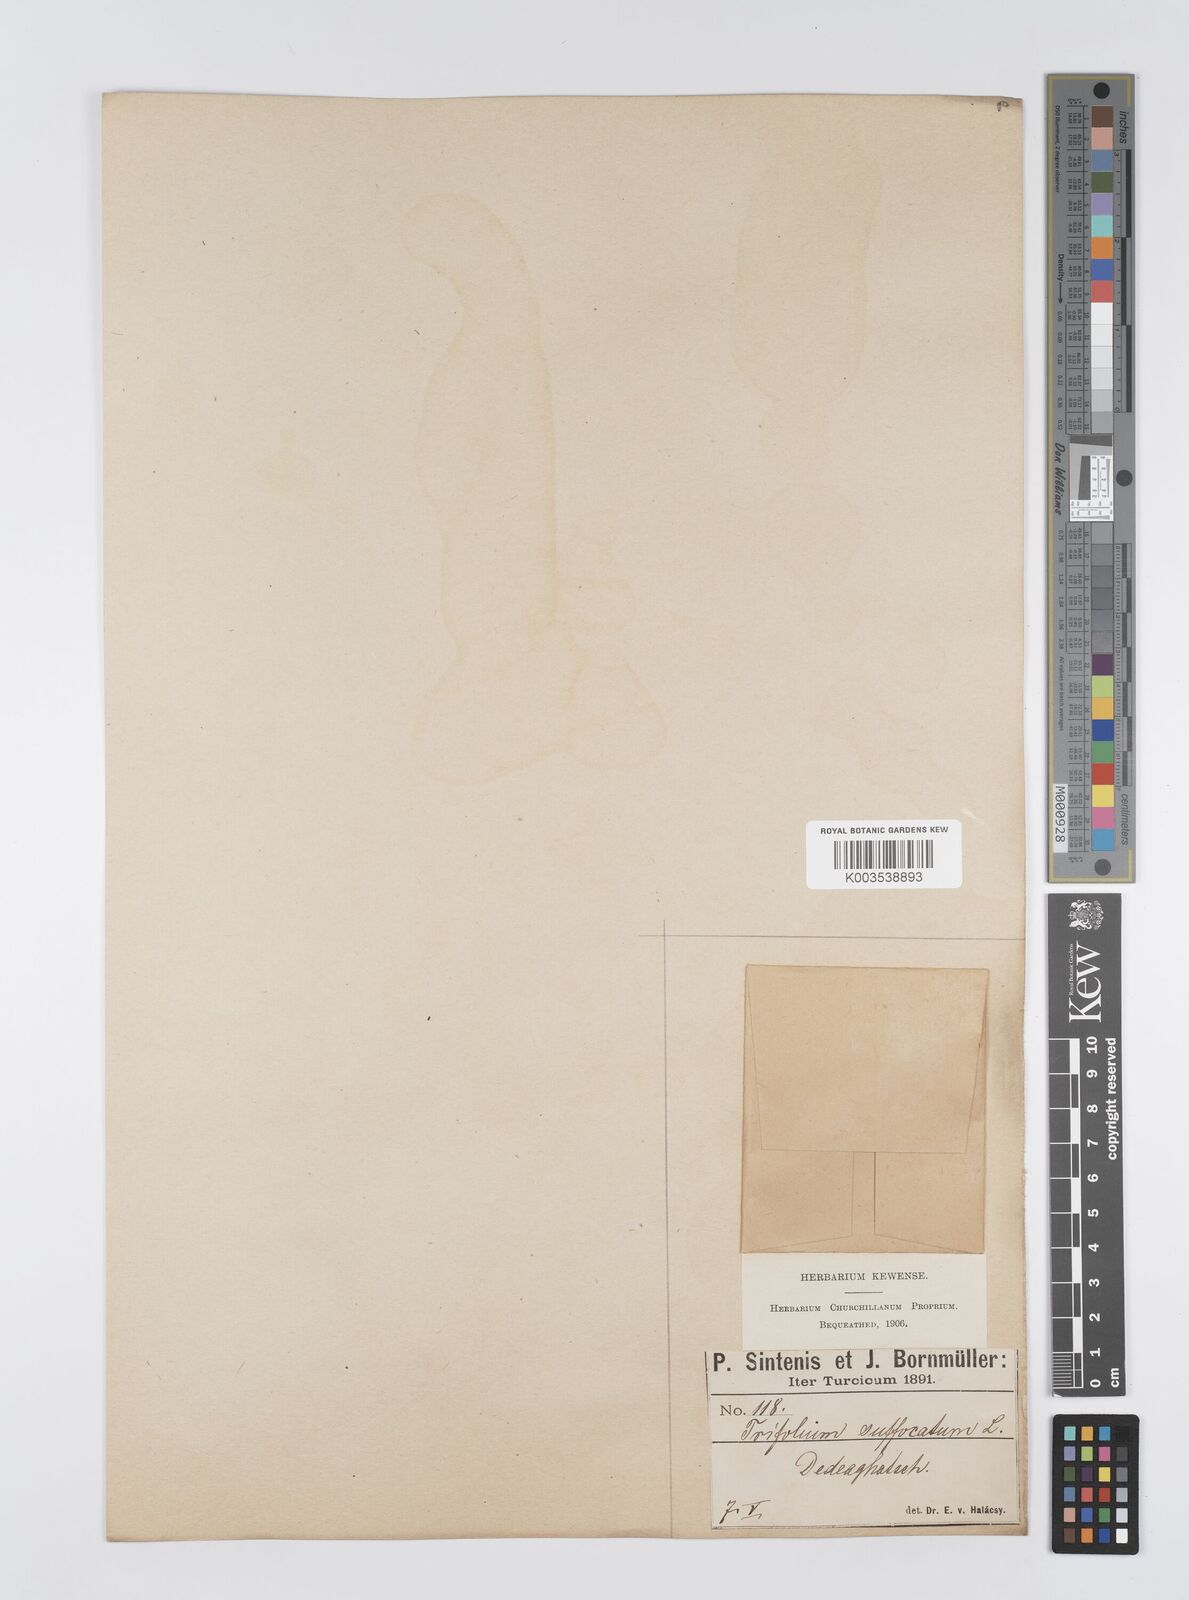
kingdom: Plantae
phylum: Tracheophyta
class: Magnoliopsida
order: Fabales
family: Fabaceae
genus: Trifolium
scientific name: Trifolium suffocatum
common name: Suffocated clover
